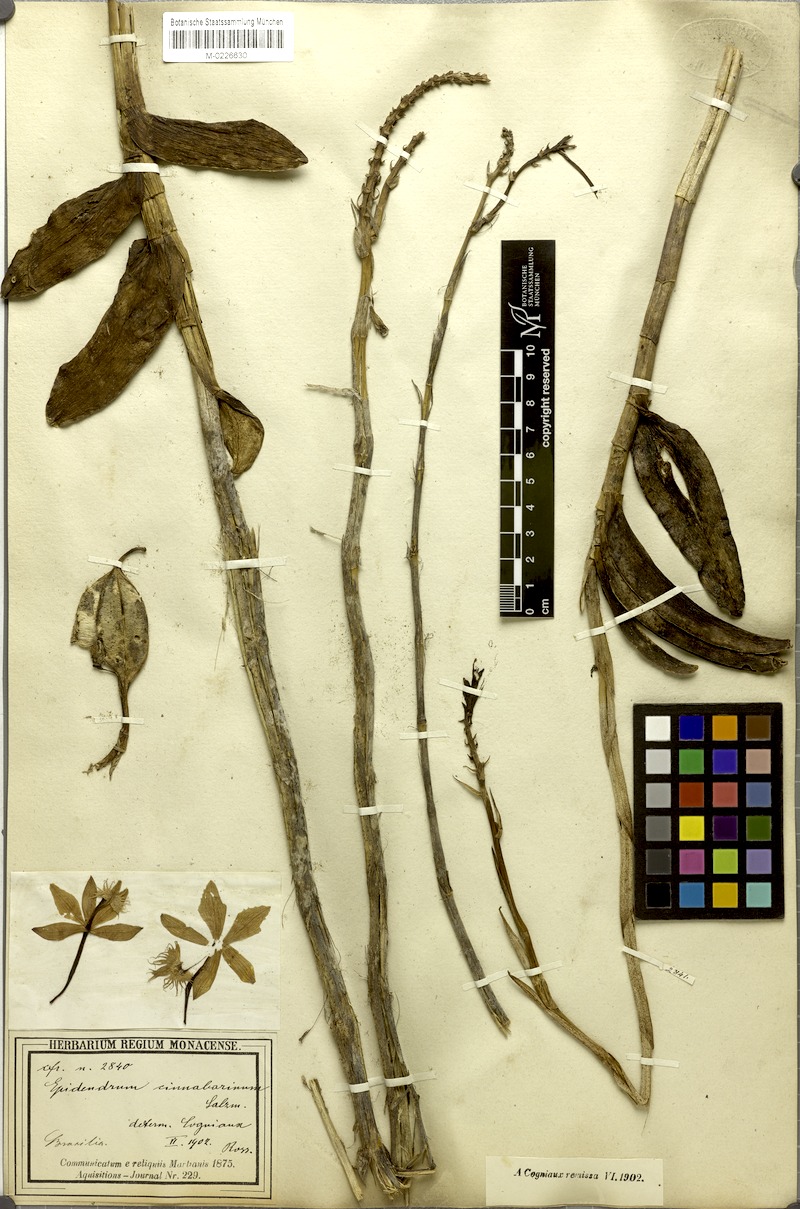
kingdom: Plantae
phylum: Tracheophyta
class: Liliopsida
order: Asparagales
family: Orchidaceae
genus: Epidendrum
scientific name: Epidendrum cinnabarinum
